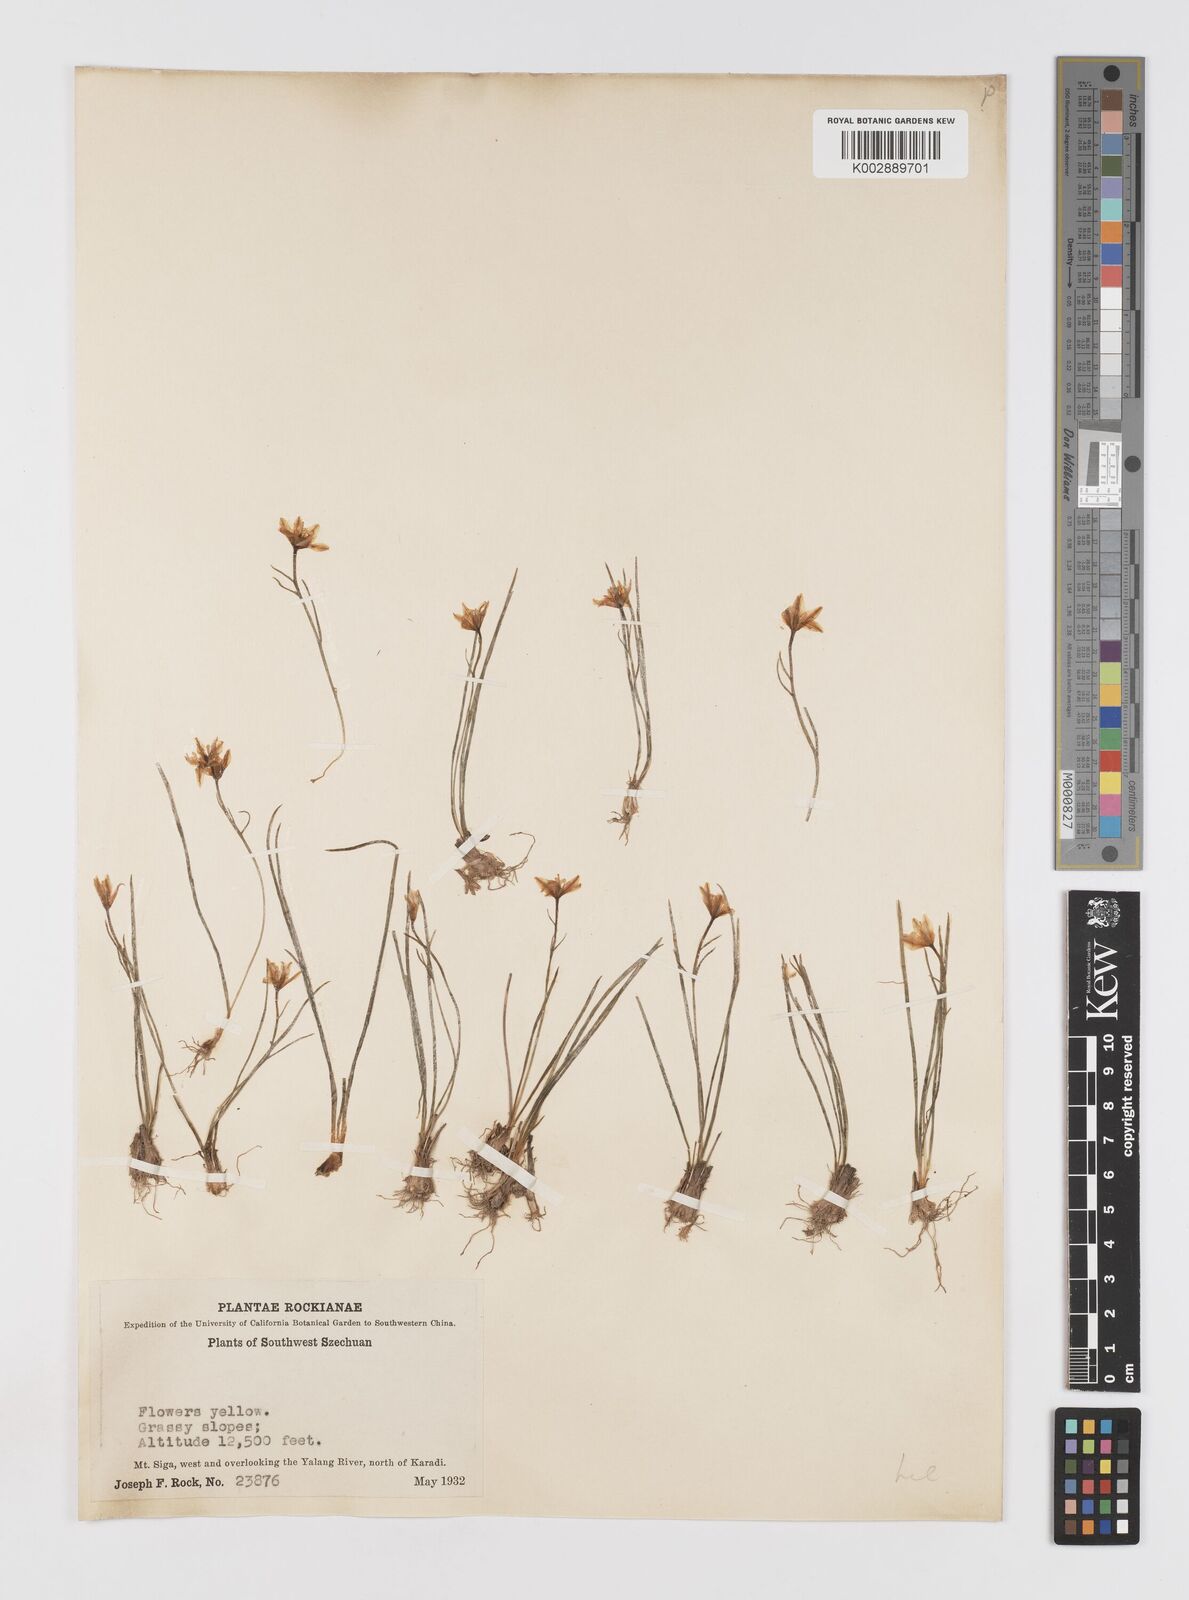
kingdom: Plantae
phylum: Tracheophyta
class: Liliopsida
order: Liliales
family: Liliaceae
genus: Gagea
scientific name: Gagea filiformis
